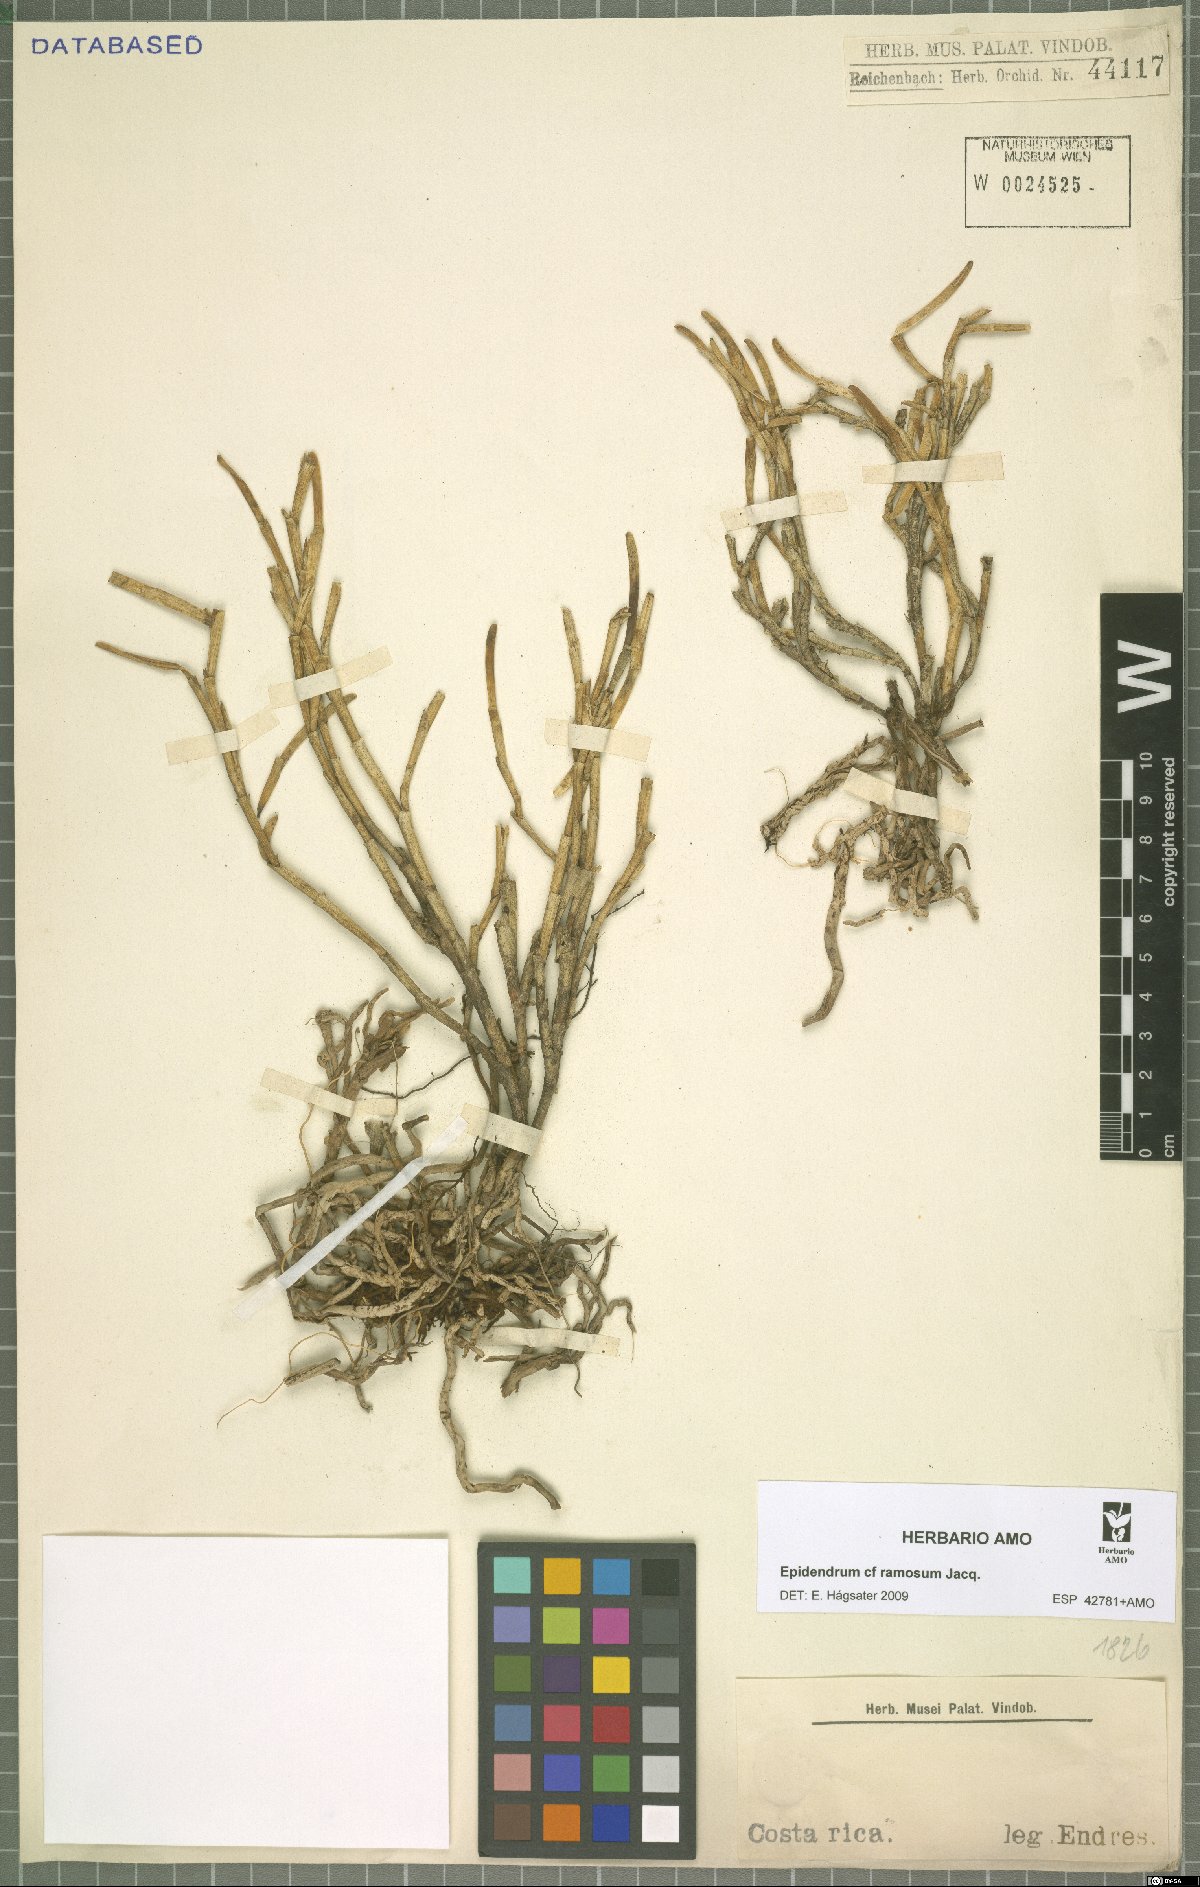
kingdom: Plantae
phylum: Tracheophyta
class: Liliopsida
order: Asparagales
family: Orchidaceae
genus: Epidendrum
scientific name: Epidendrum ramosum
